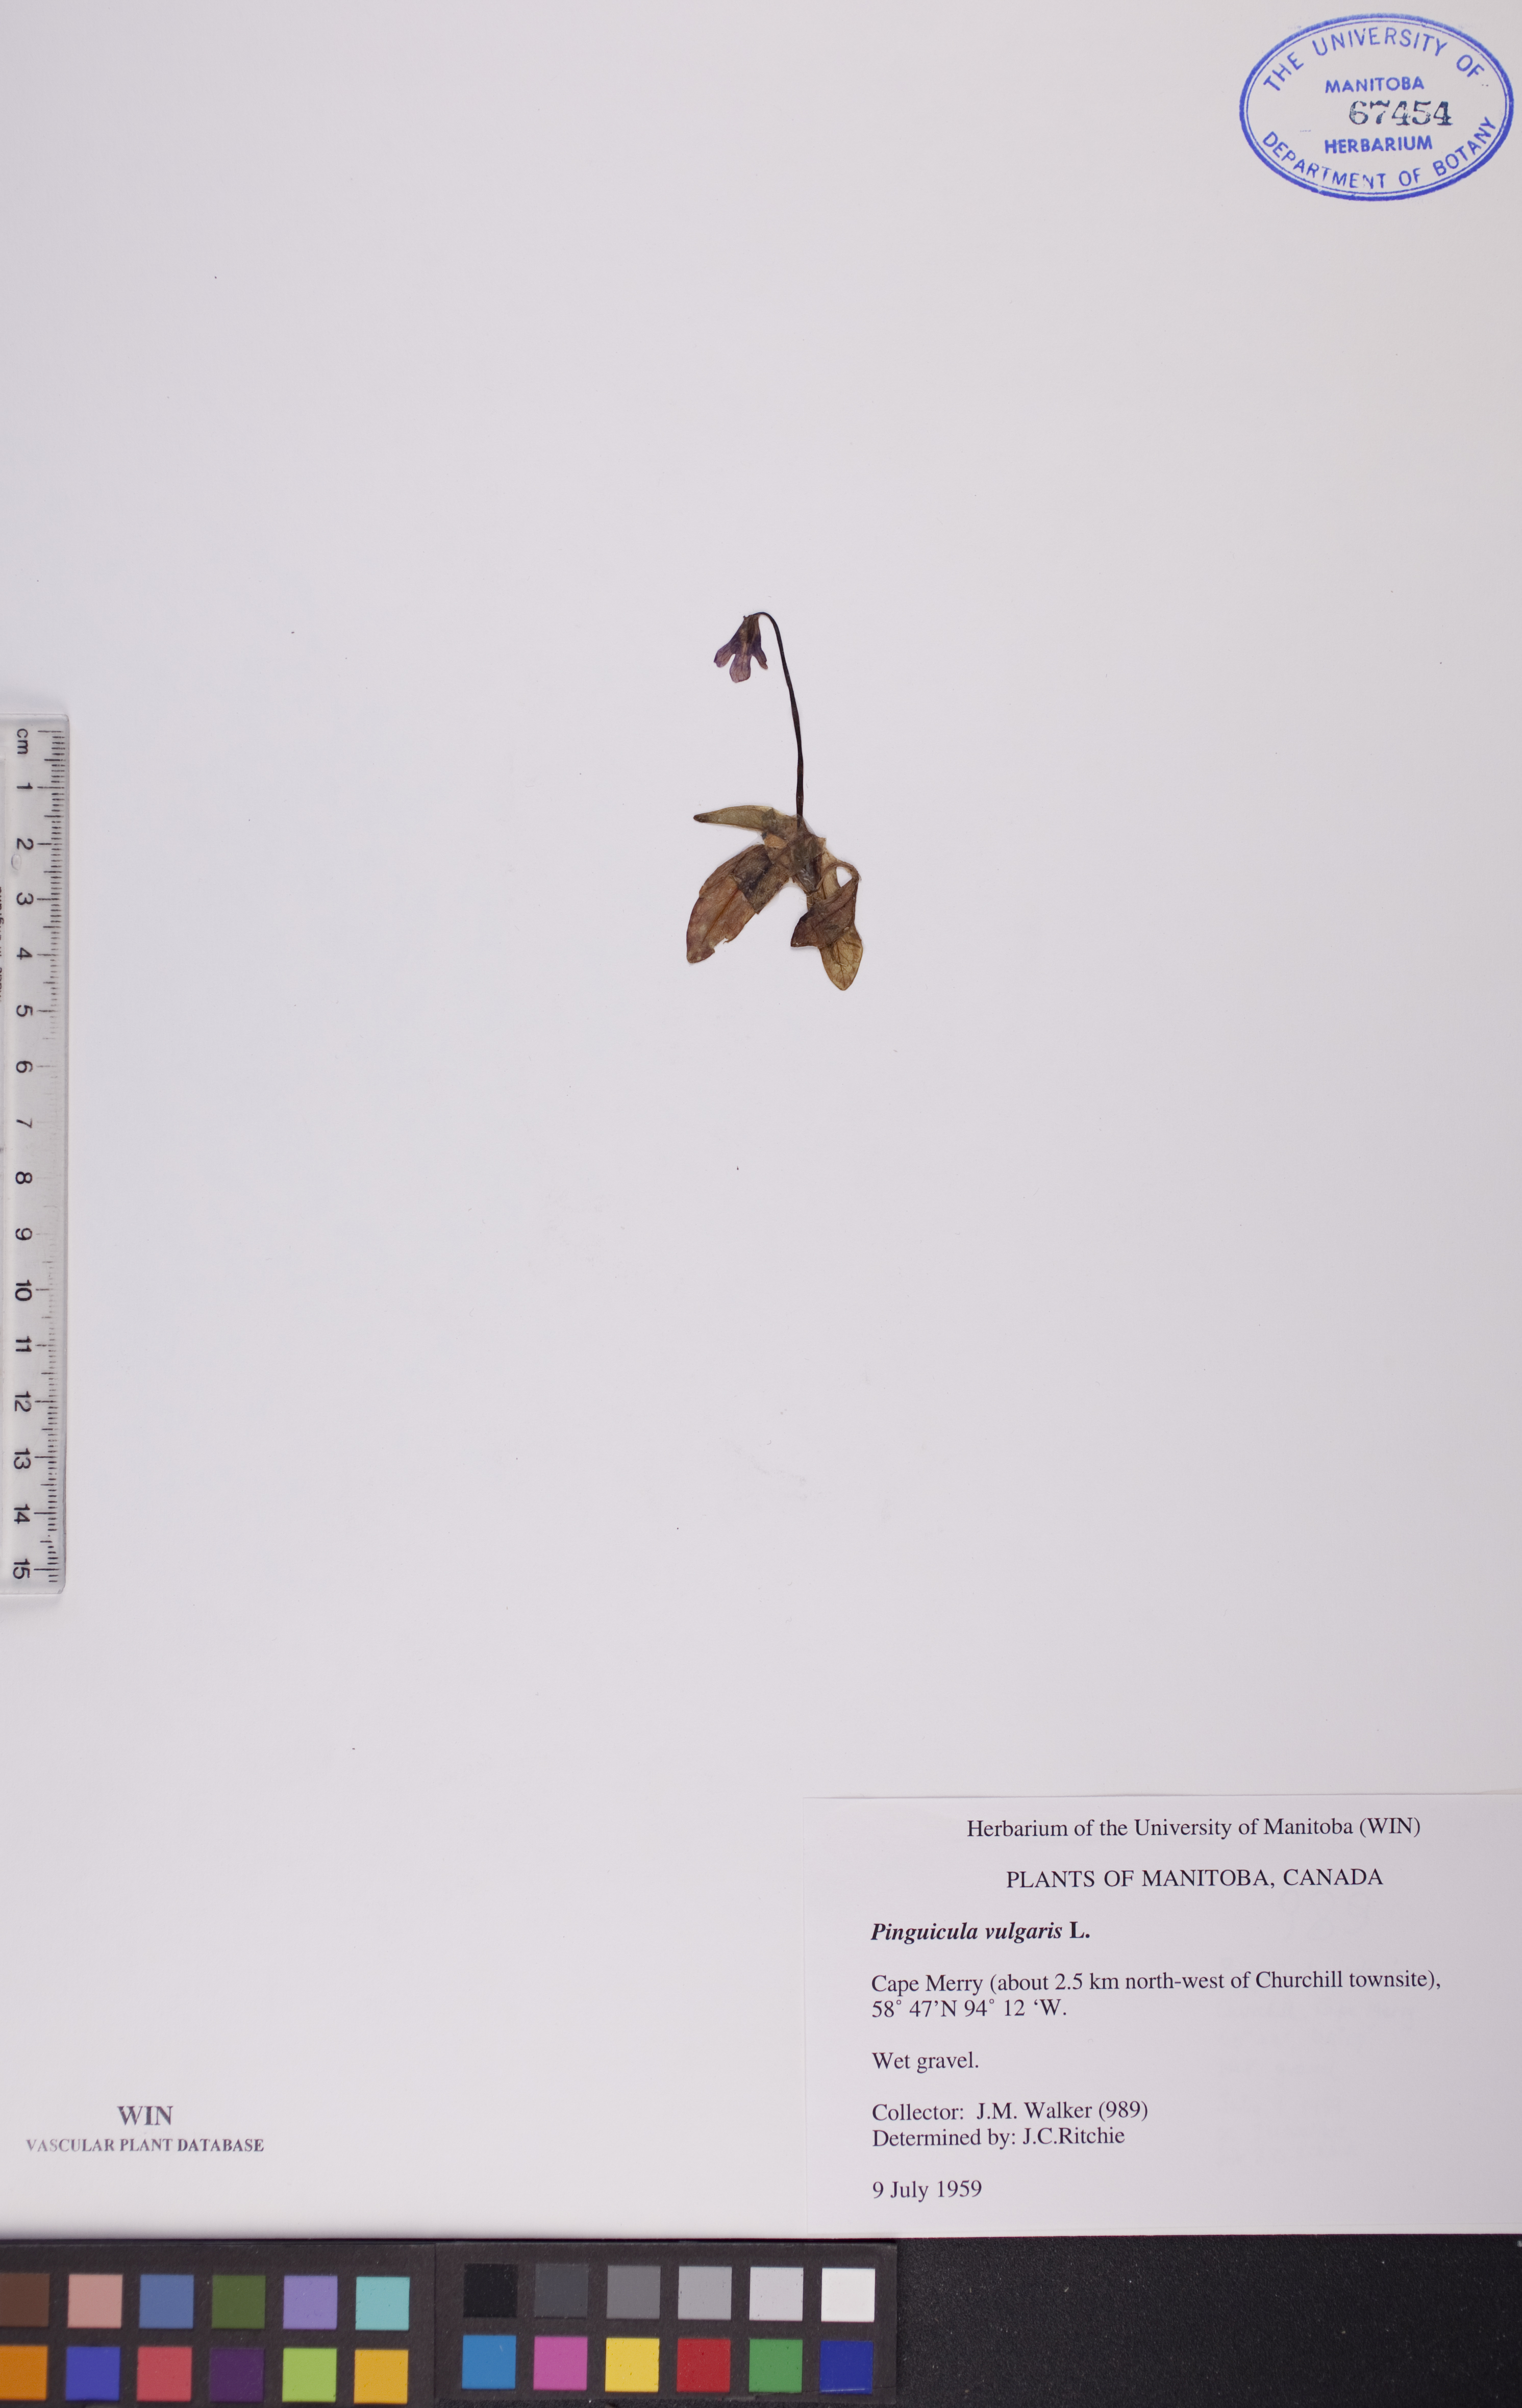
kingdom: Plantae
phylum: Tracheophyta
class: Magnoliopsida
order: Lamiales
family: Lentibulariaceae
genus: Pinguicula
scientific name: Pinguicula vulgaris
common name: Common butterwort
